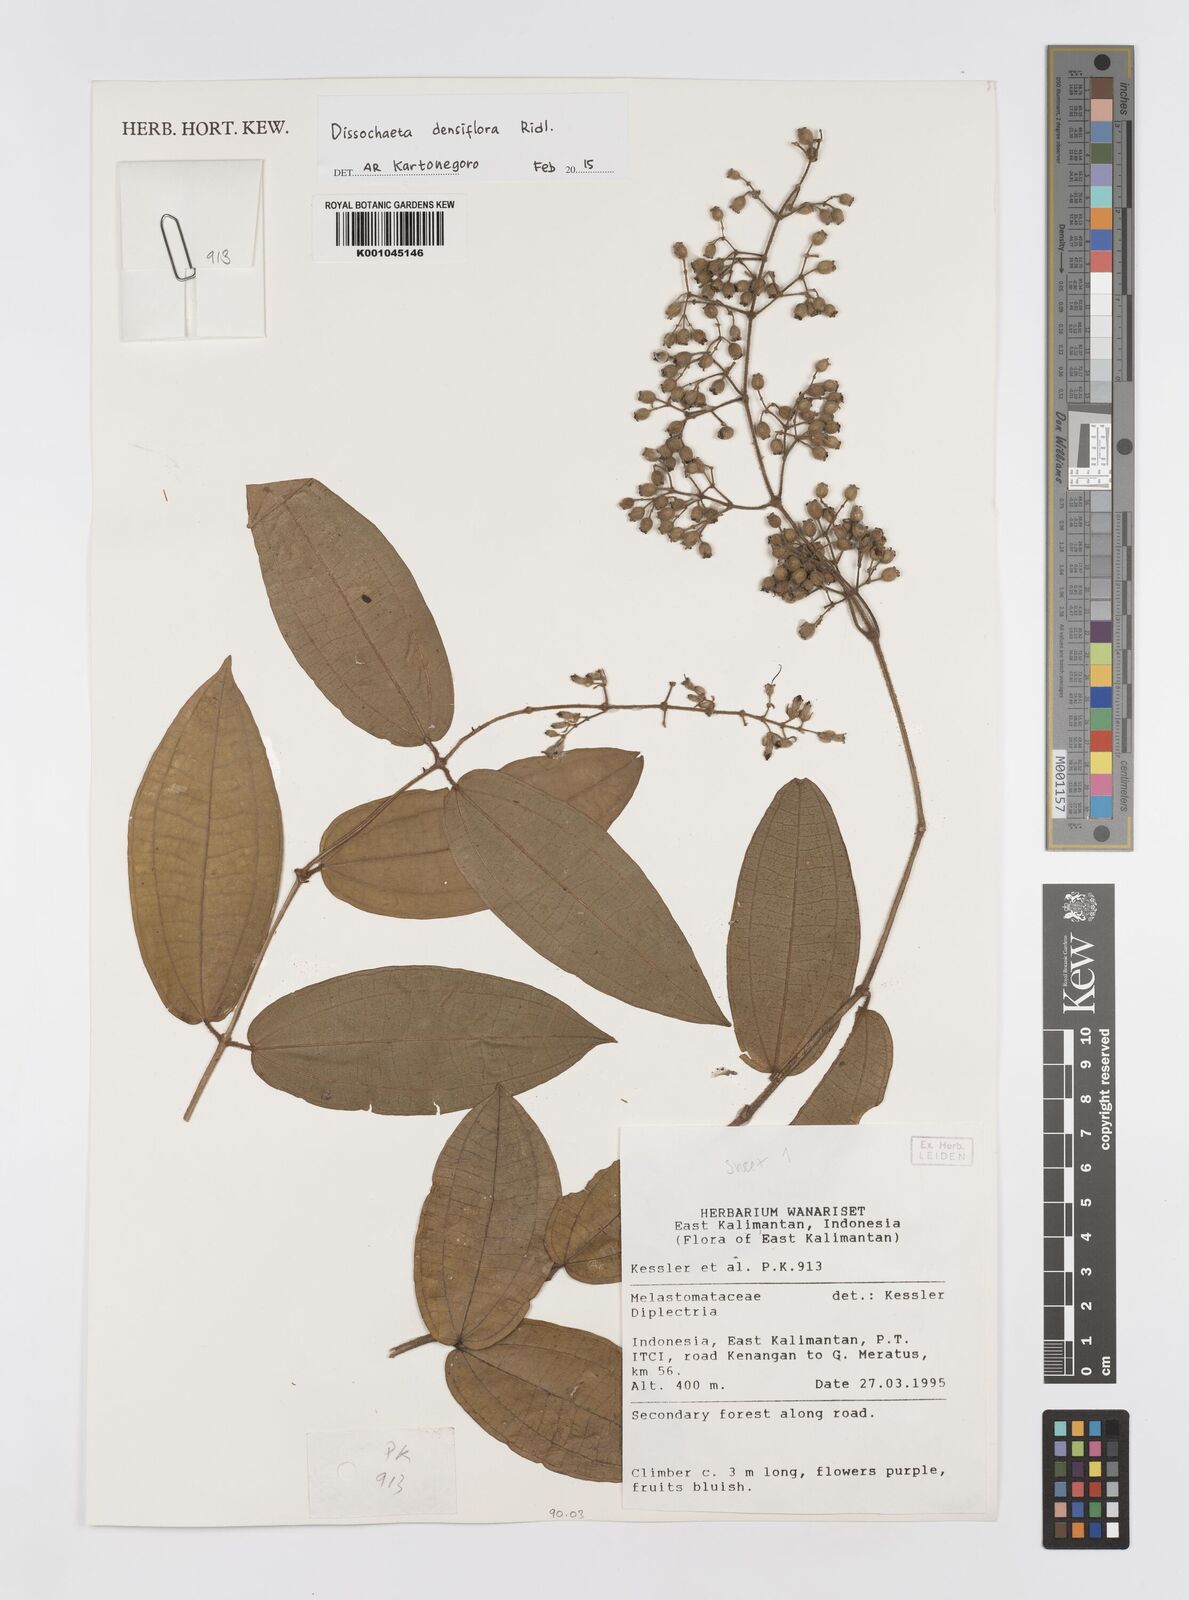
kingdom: Plantae
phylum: Tracheophyta
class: Magnoliopsida
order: Myrtales
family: Melastomataceae
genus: Dissochaeta
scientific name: Dissochaeta densiflora
